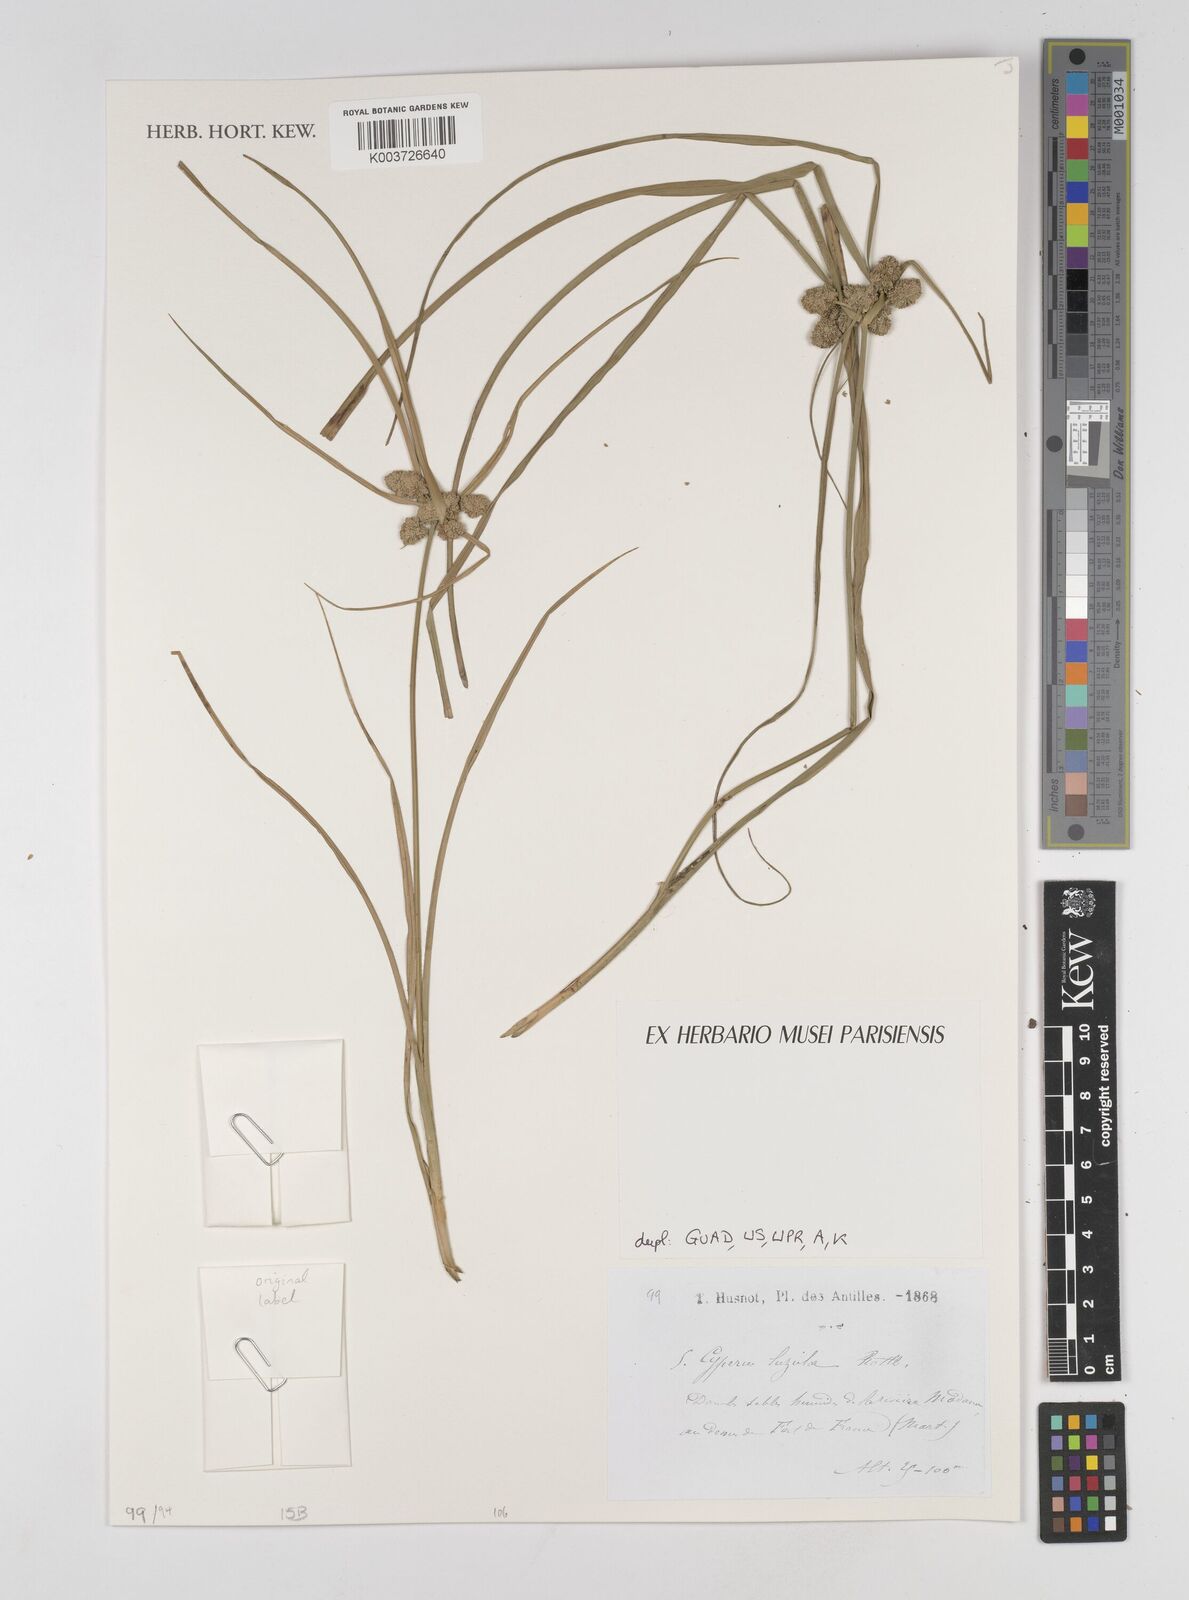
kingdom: Plantae
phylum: Tracheophyta
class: Liliopsida
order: Poales
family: Cyperaceae
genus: Cyperus
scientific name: Cyperus luzulae
